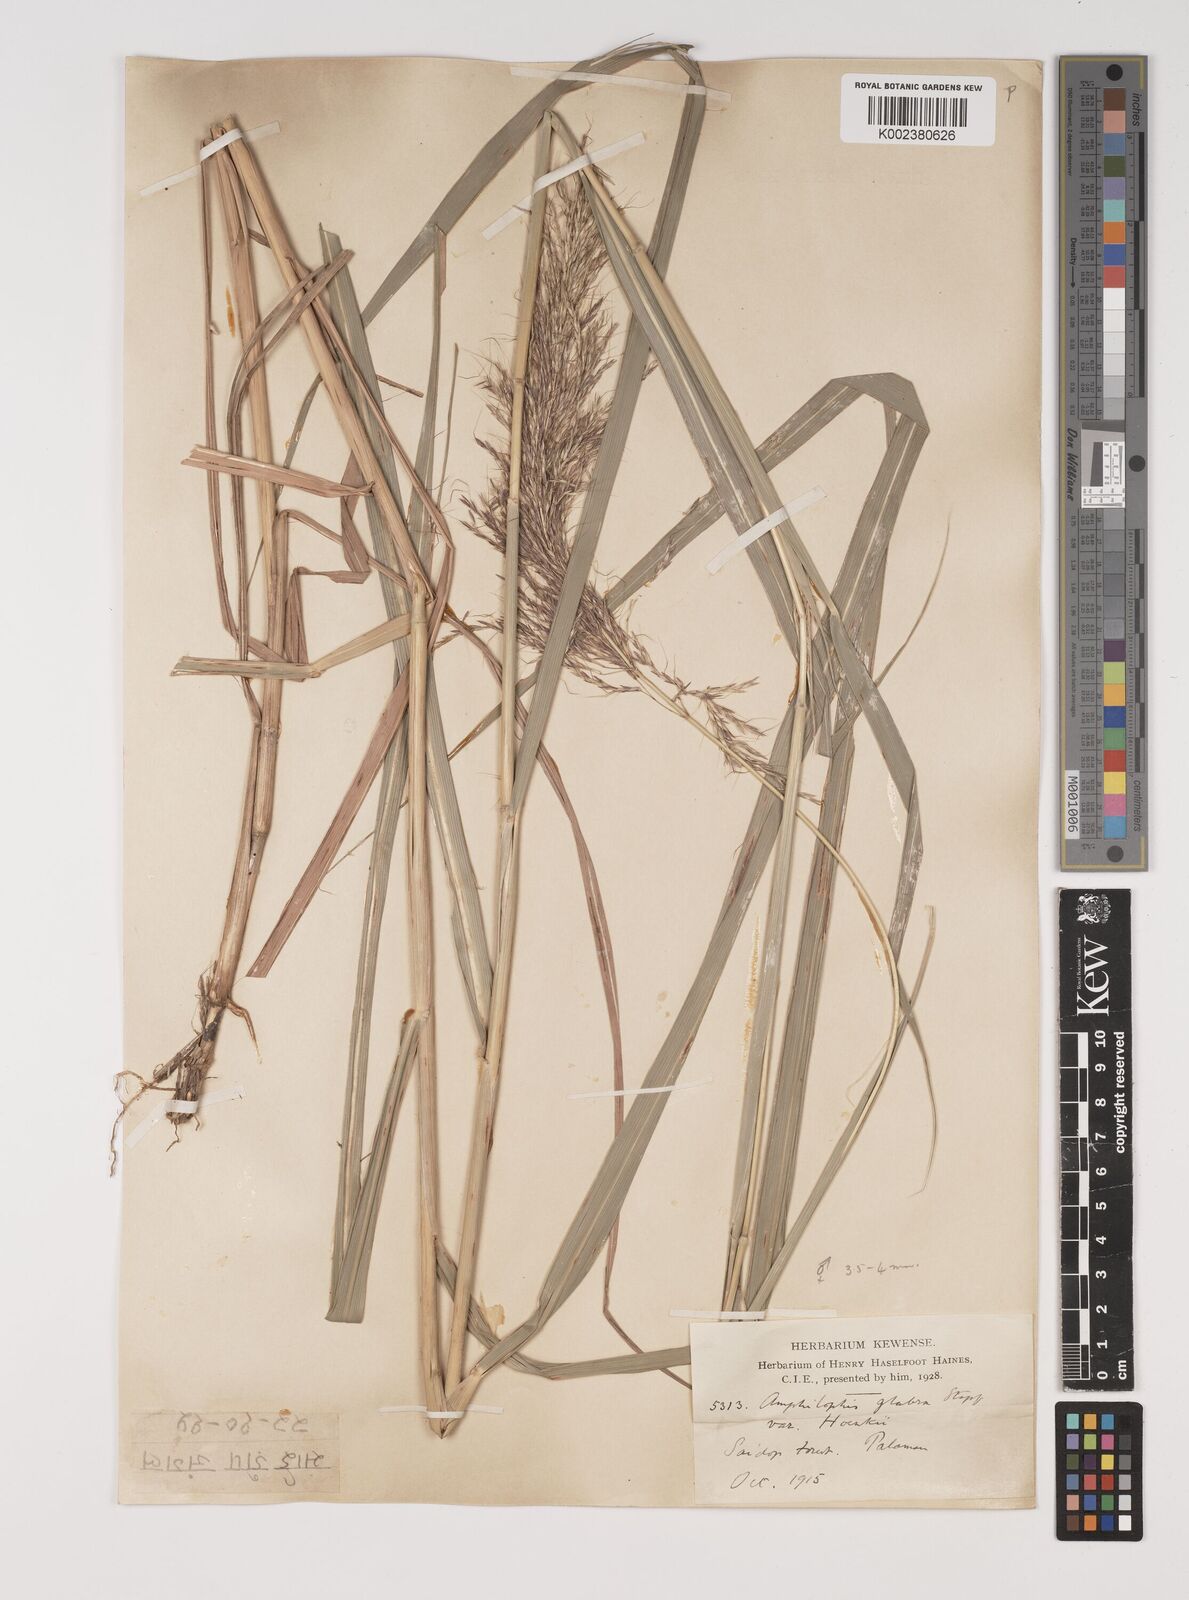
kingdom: Plantae
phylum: Tracheophyta
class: Liliopsida
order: Poales
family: Poaceae
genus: Bothriochloa
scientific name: Bothriochloa bladhii
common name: Caucasian bluestem
